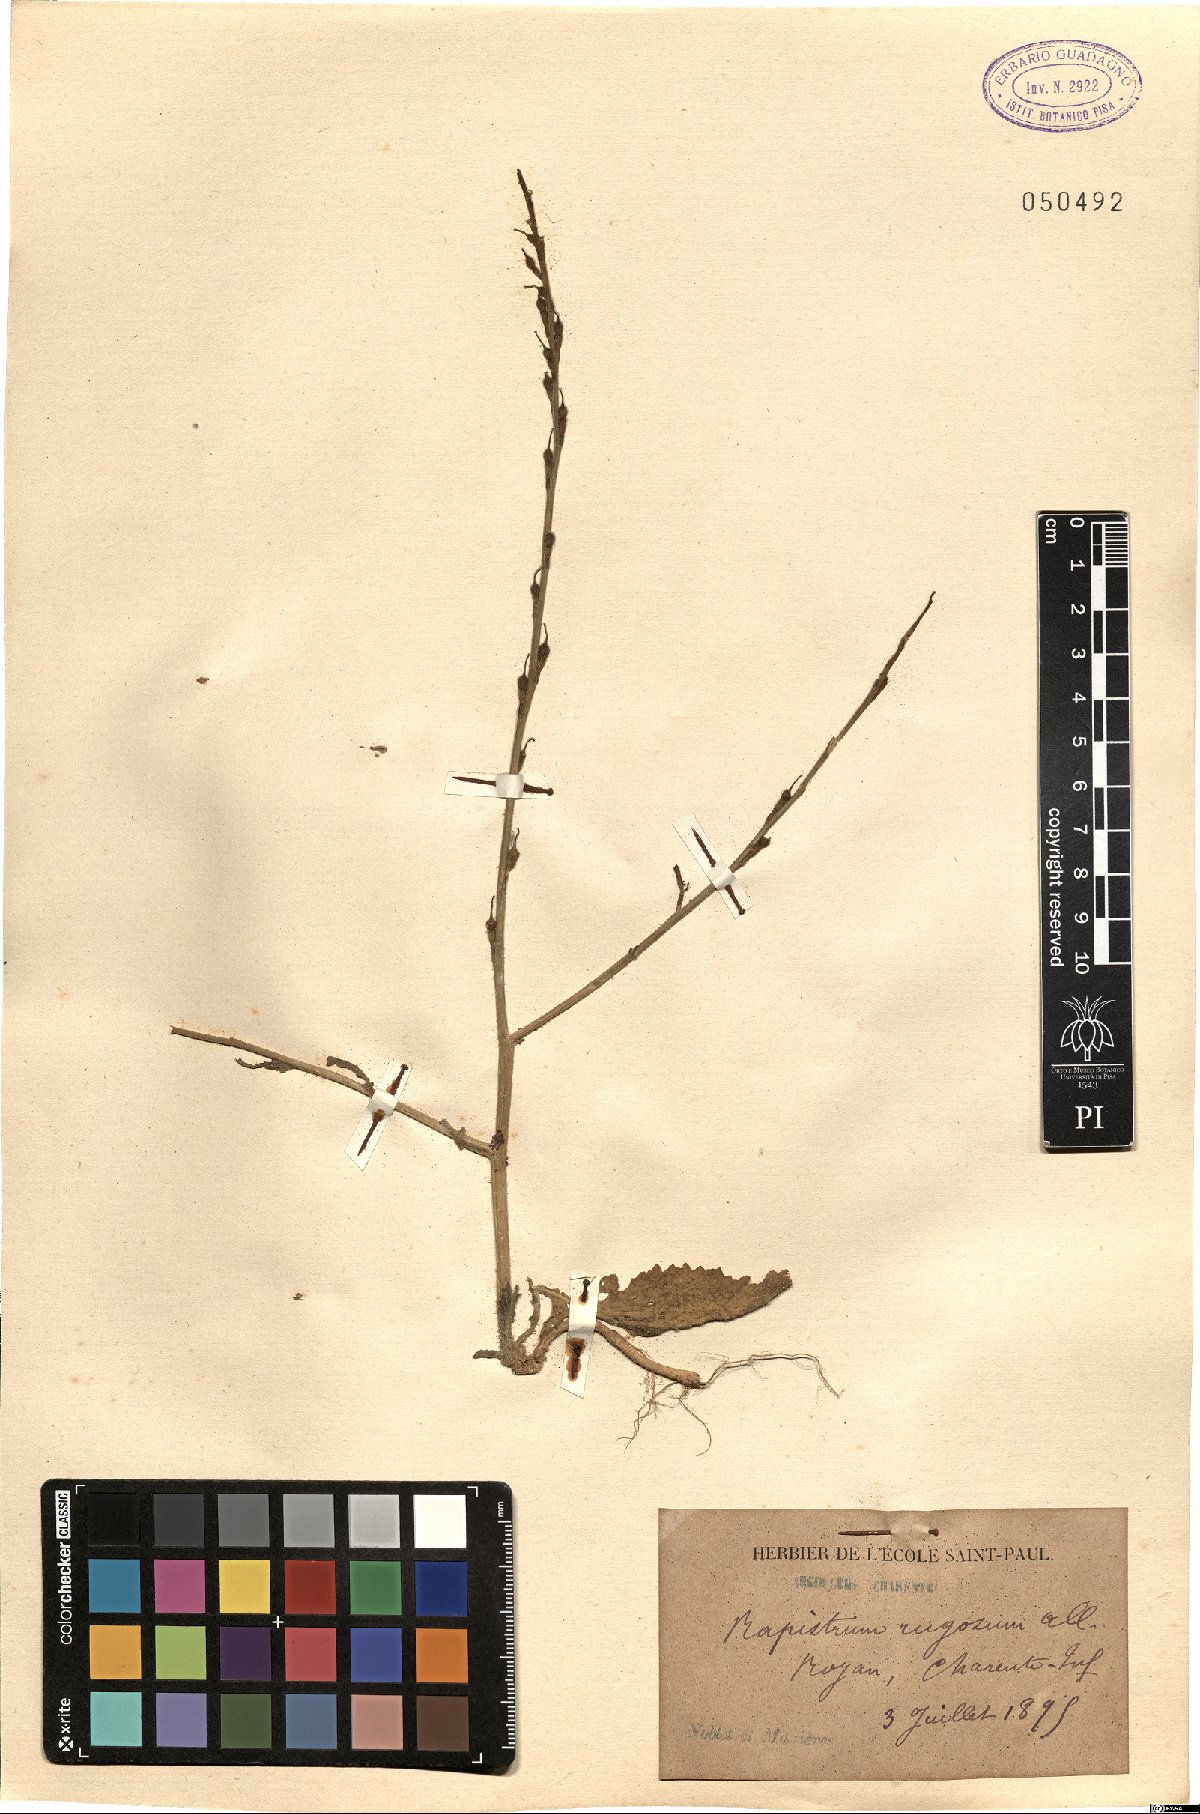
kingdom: Plantae
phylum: Tracheophyta
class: Magnoliopsida
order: Brassicales
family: Brassicaceae
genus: Rapistrum
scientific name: Rapistrum rugosum
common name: Annual bastardcabbage
